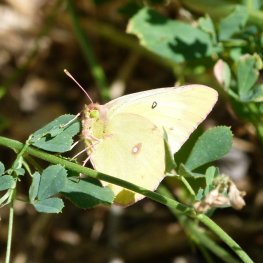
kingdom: Animalia
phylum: Arthropoda
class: Insecta
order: Lepidoptera
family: Pieridae
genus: Colias
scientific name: Colias philodice
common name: Clouded Sulphur
